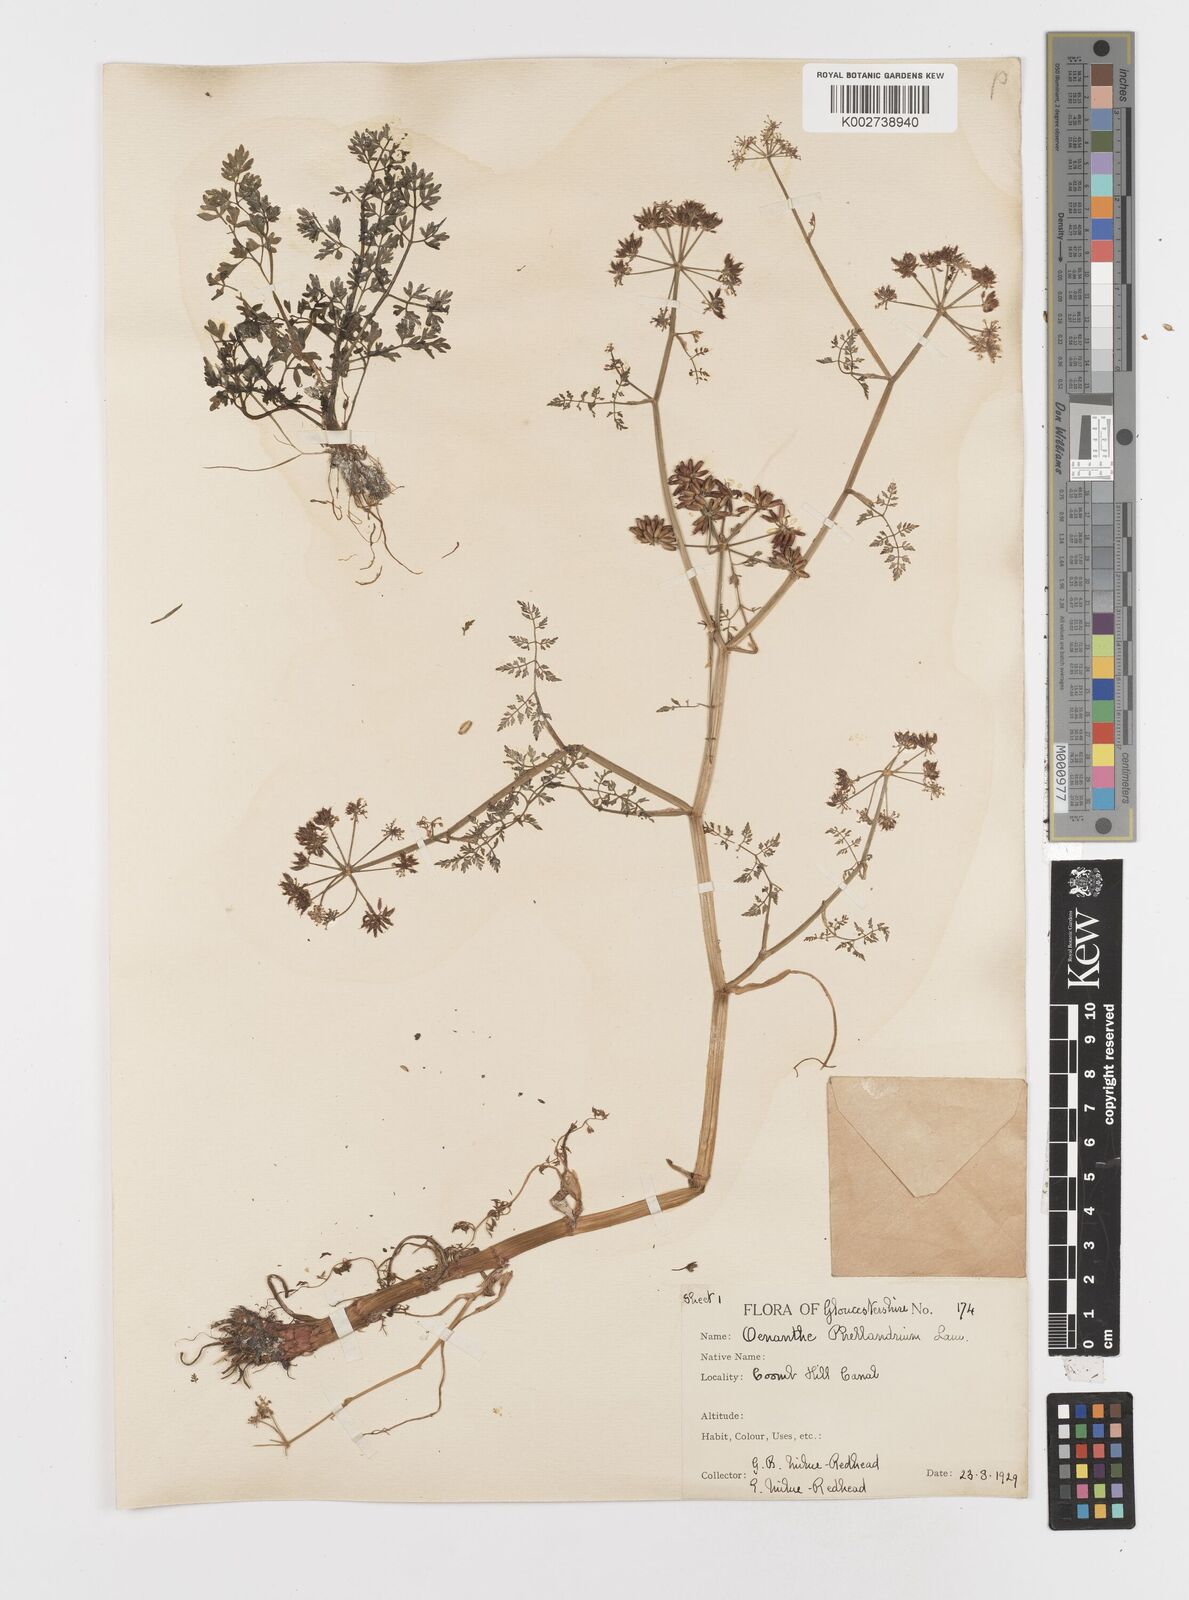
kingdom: Plantae
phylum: Tracheophyta
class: Magnoliopsida
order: Apiales
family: Apiaceae
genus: Oenanthe
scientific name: Oenanthe lachenalii
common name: Parsley water-dropwort
